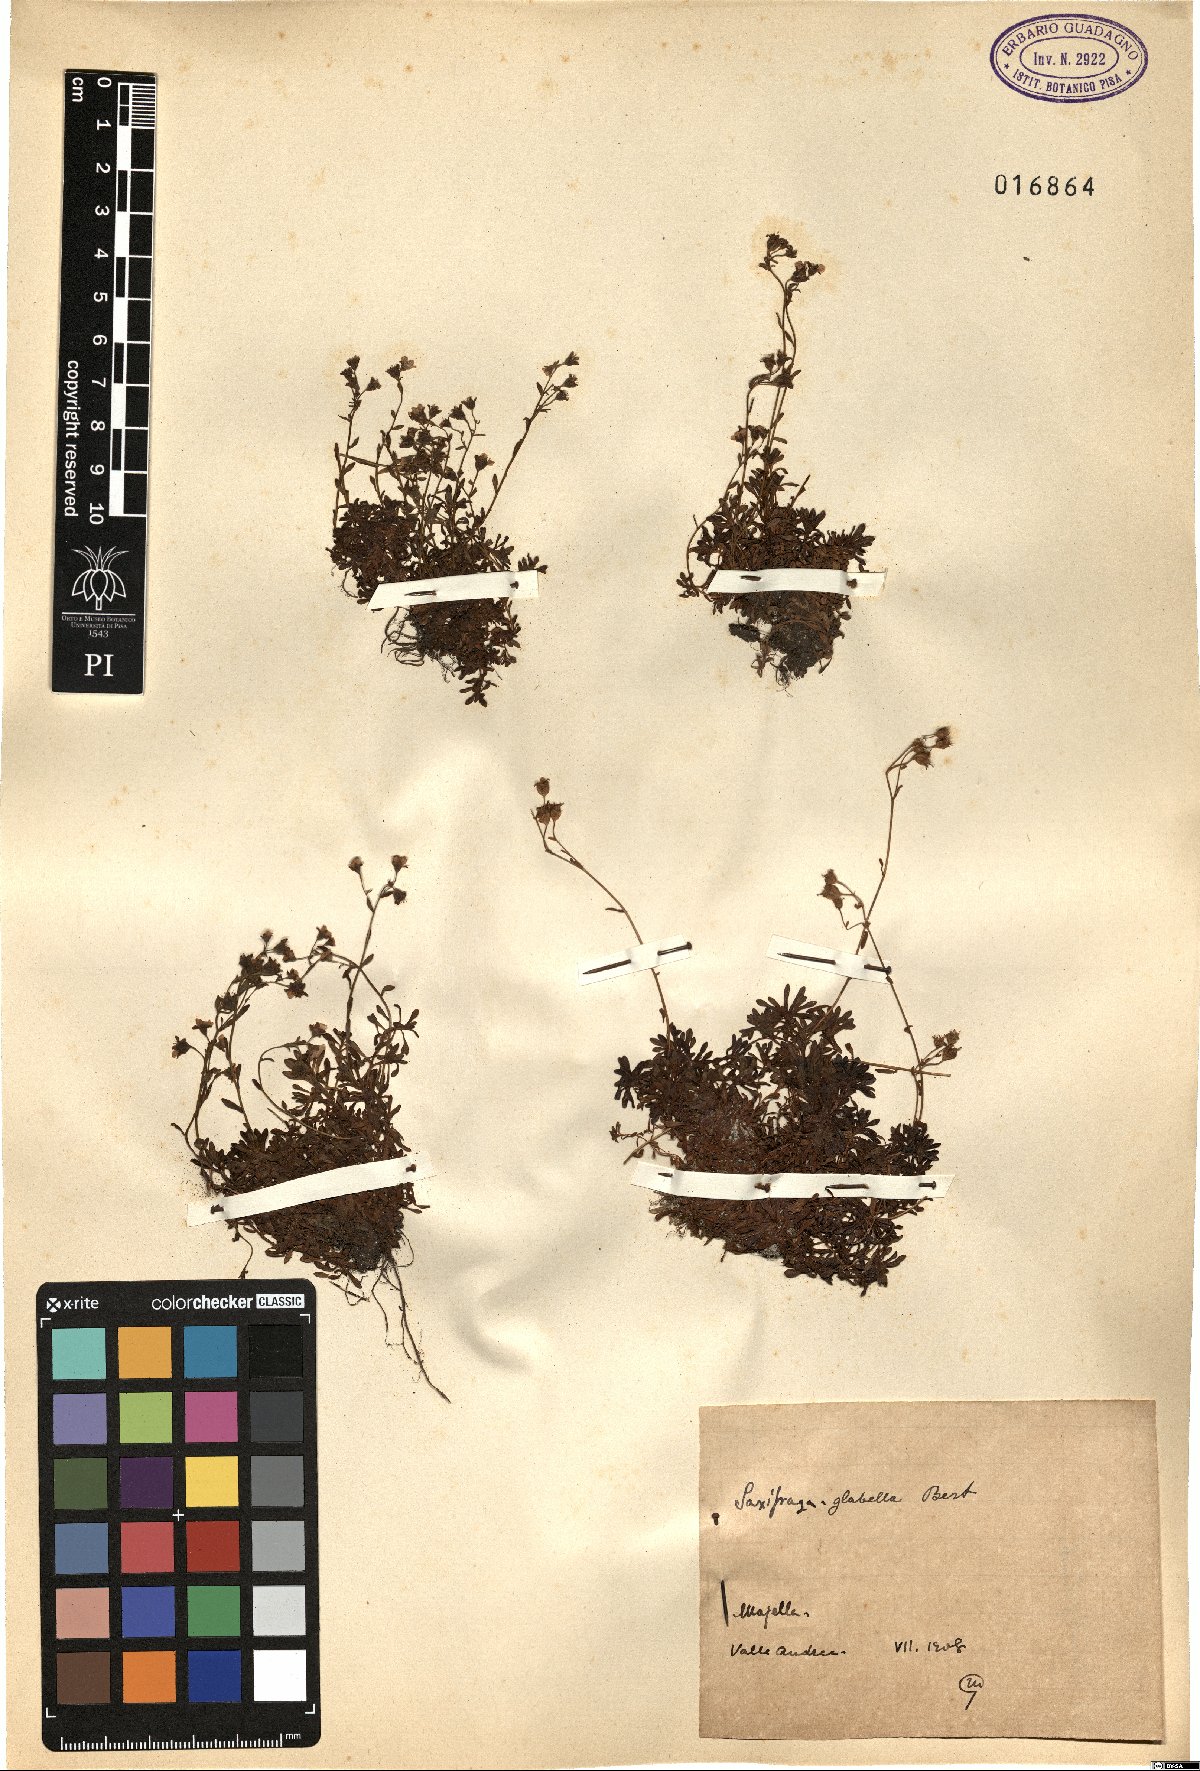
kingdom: Plantae
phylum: Tracheophyta
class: Magnoliopsida
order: Saxifragales
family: Saxifragaceae
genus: Saxifraga
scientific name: Saxifraga glabella
